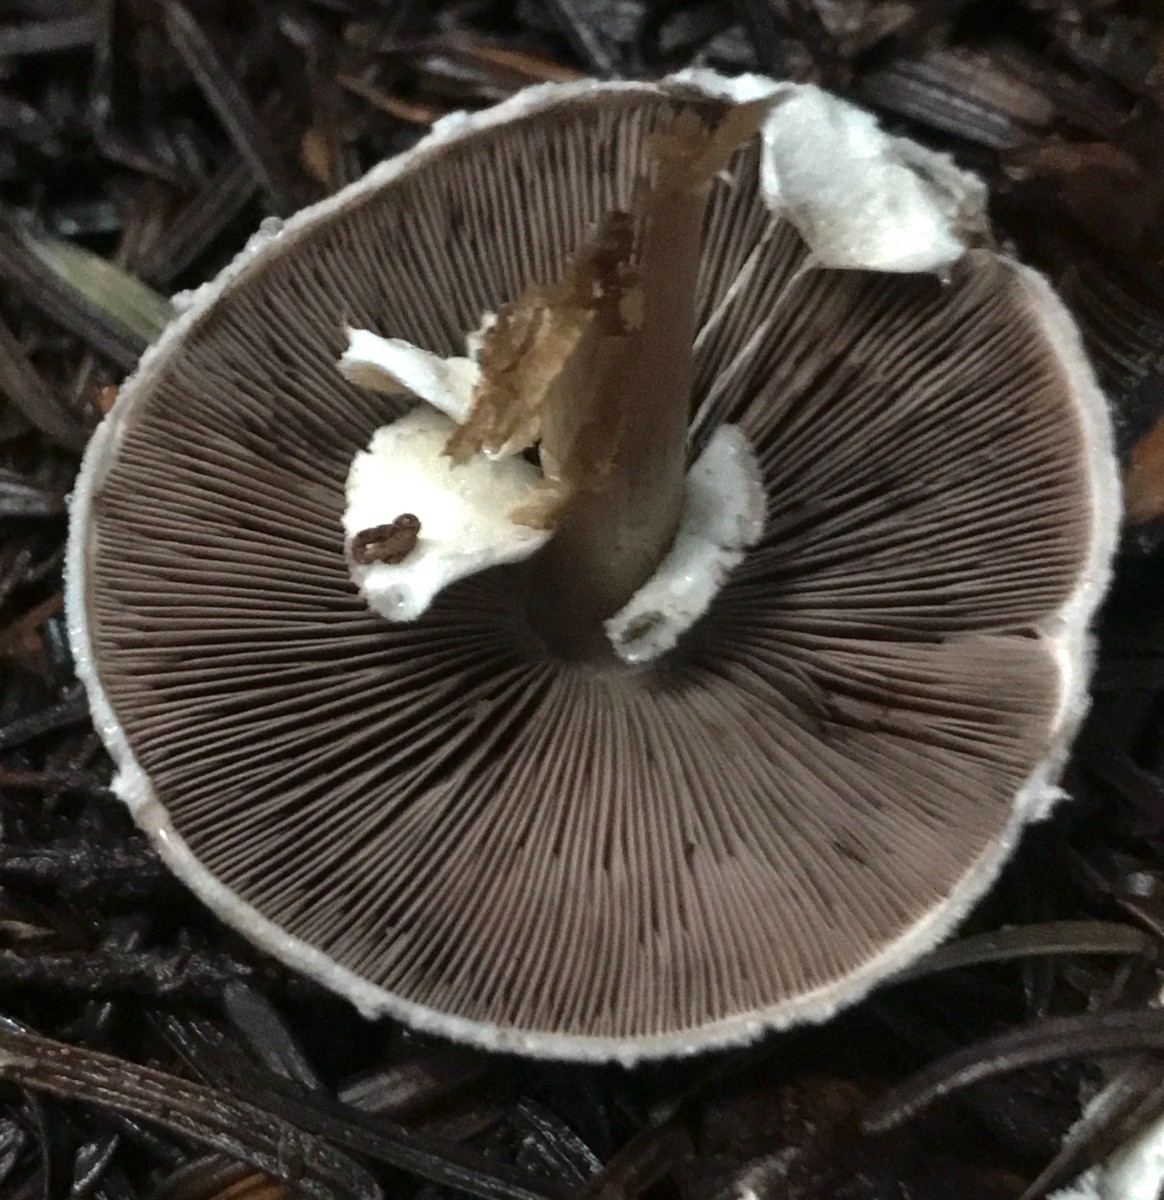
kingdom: Fungi
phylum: Basidiomycota
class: Agaricomycetes
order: Agaricales
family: Agaricaceae
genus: Agaricus
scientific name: Agaricus impudicus
